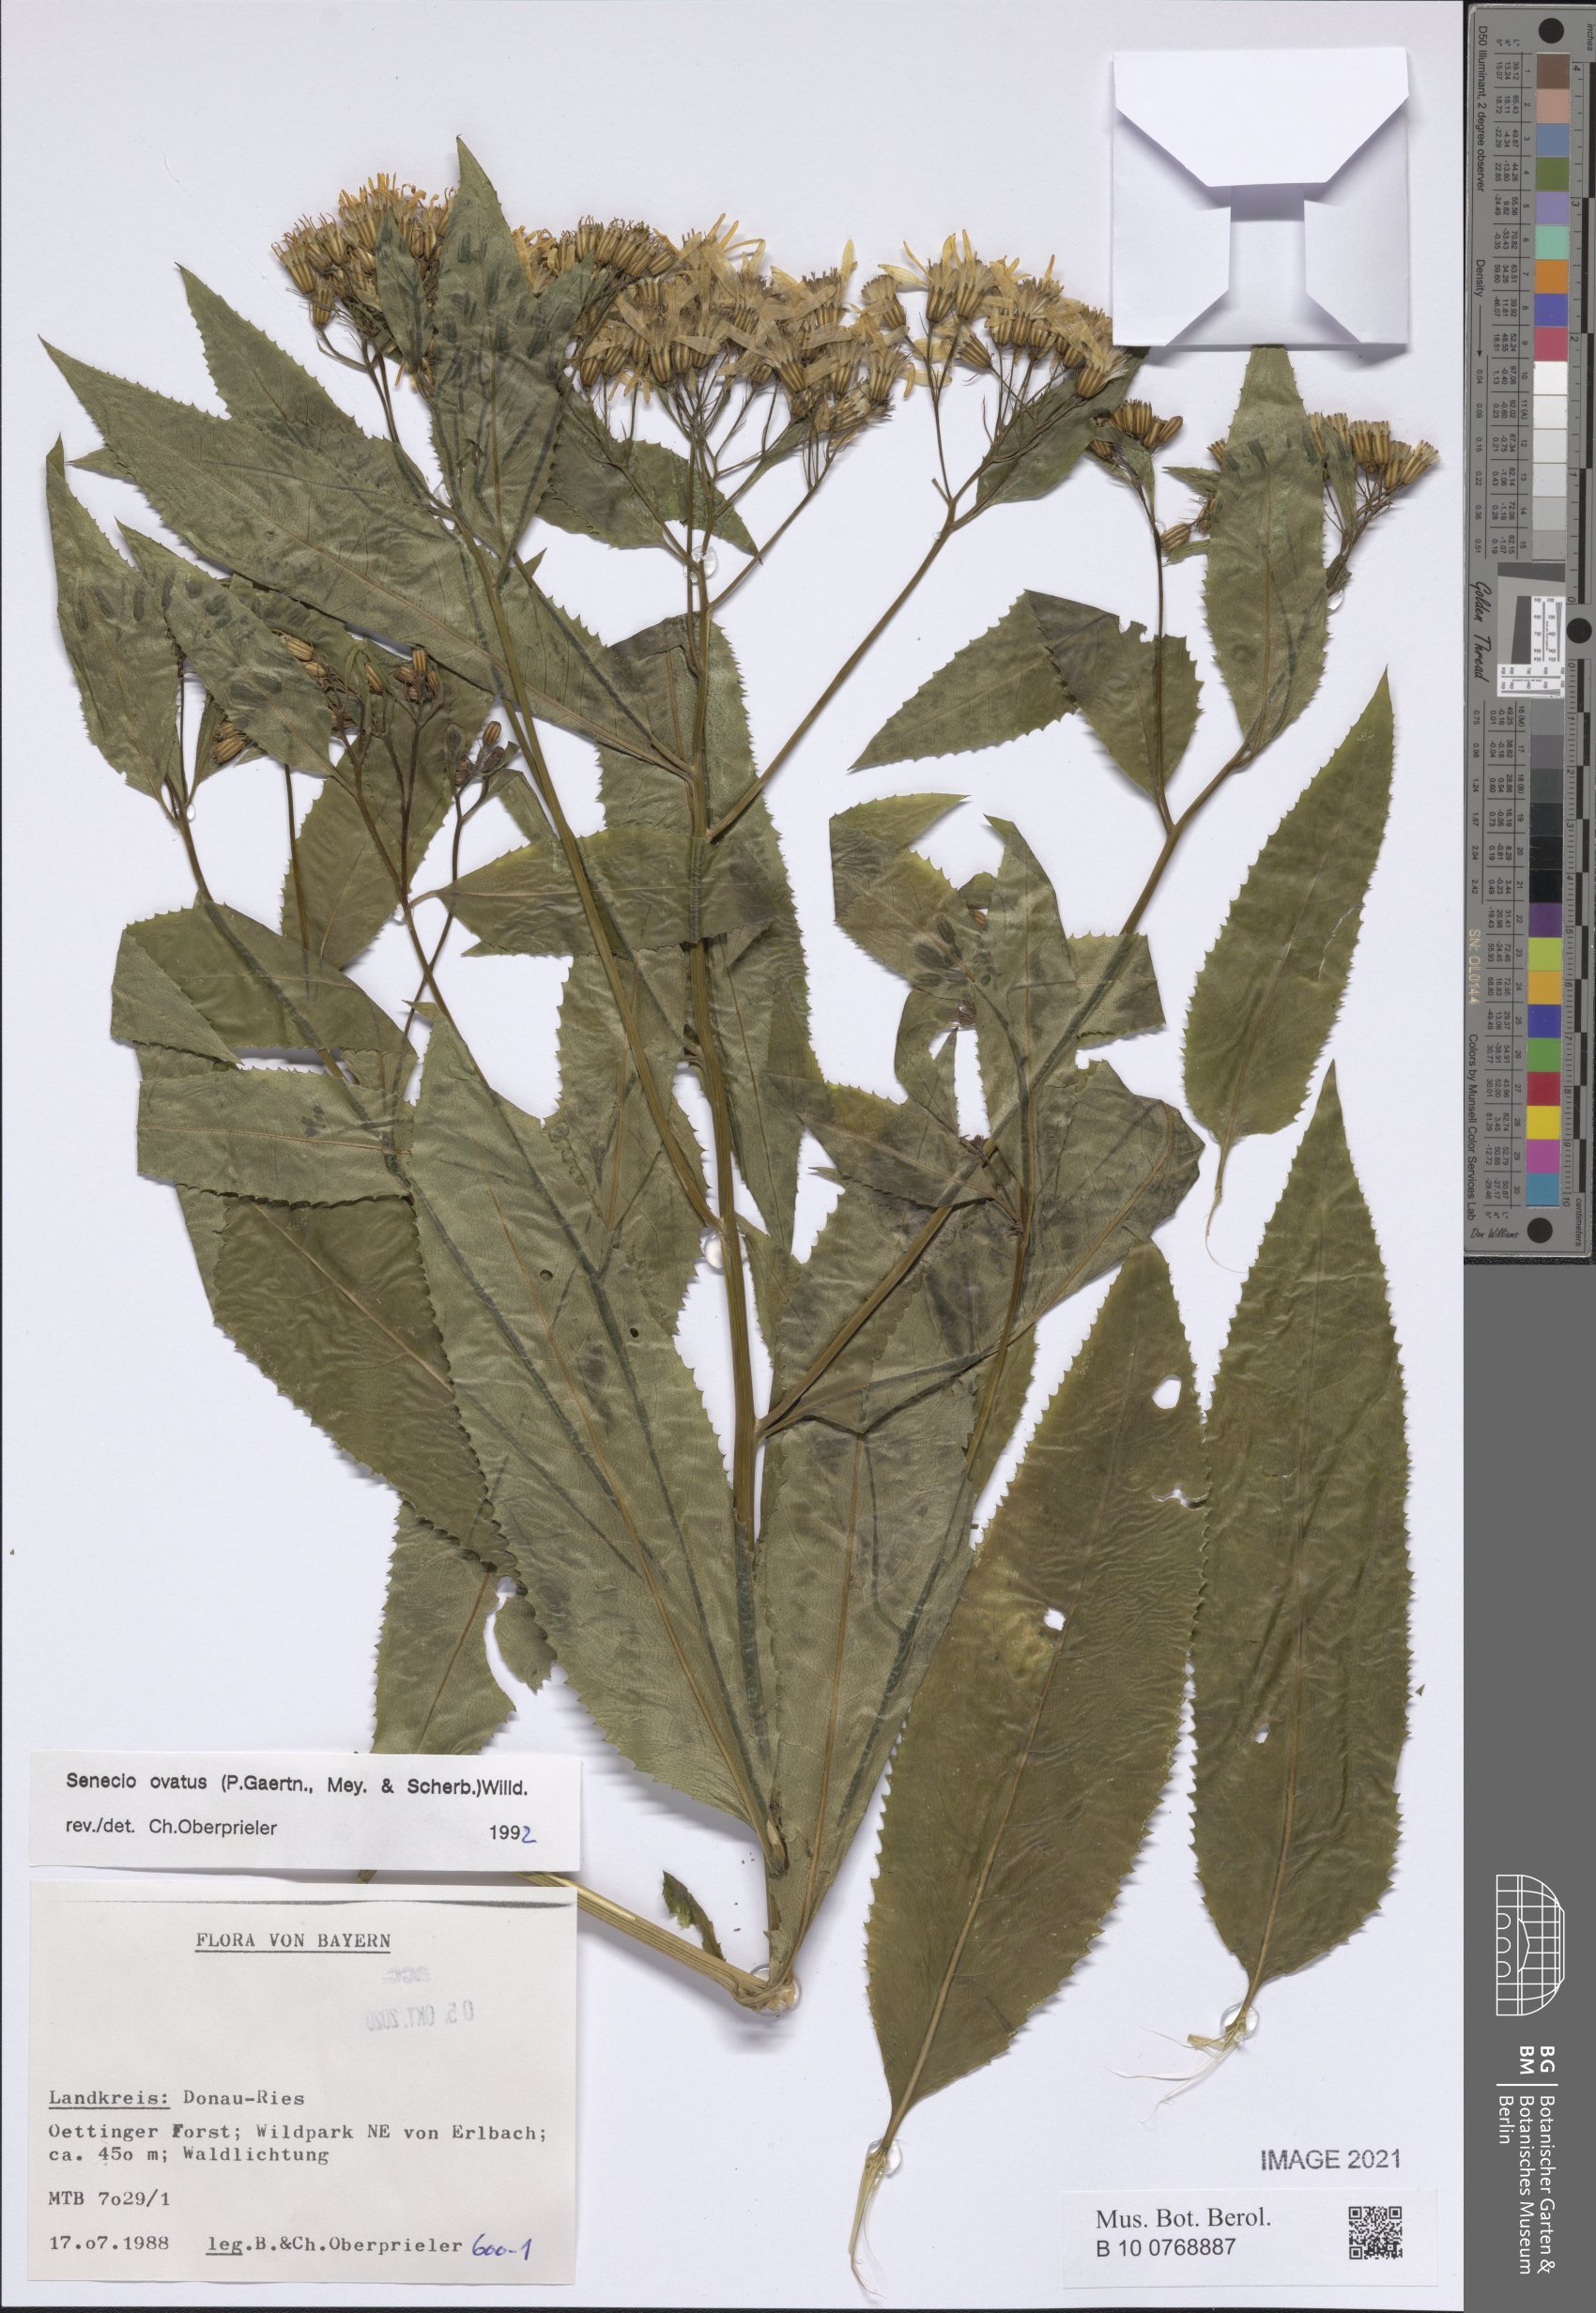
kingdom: Plantae
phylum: Tracheophyta
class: Magnoliopsida
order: Asterales
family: Asteraceae
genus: Senecio
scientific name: Senecio ovatus
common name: Wood ragwort
